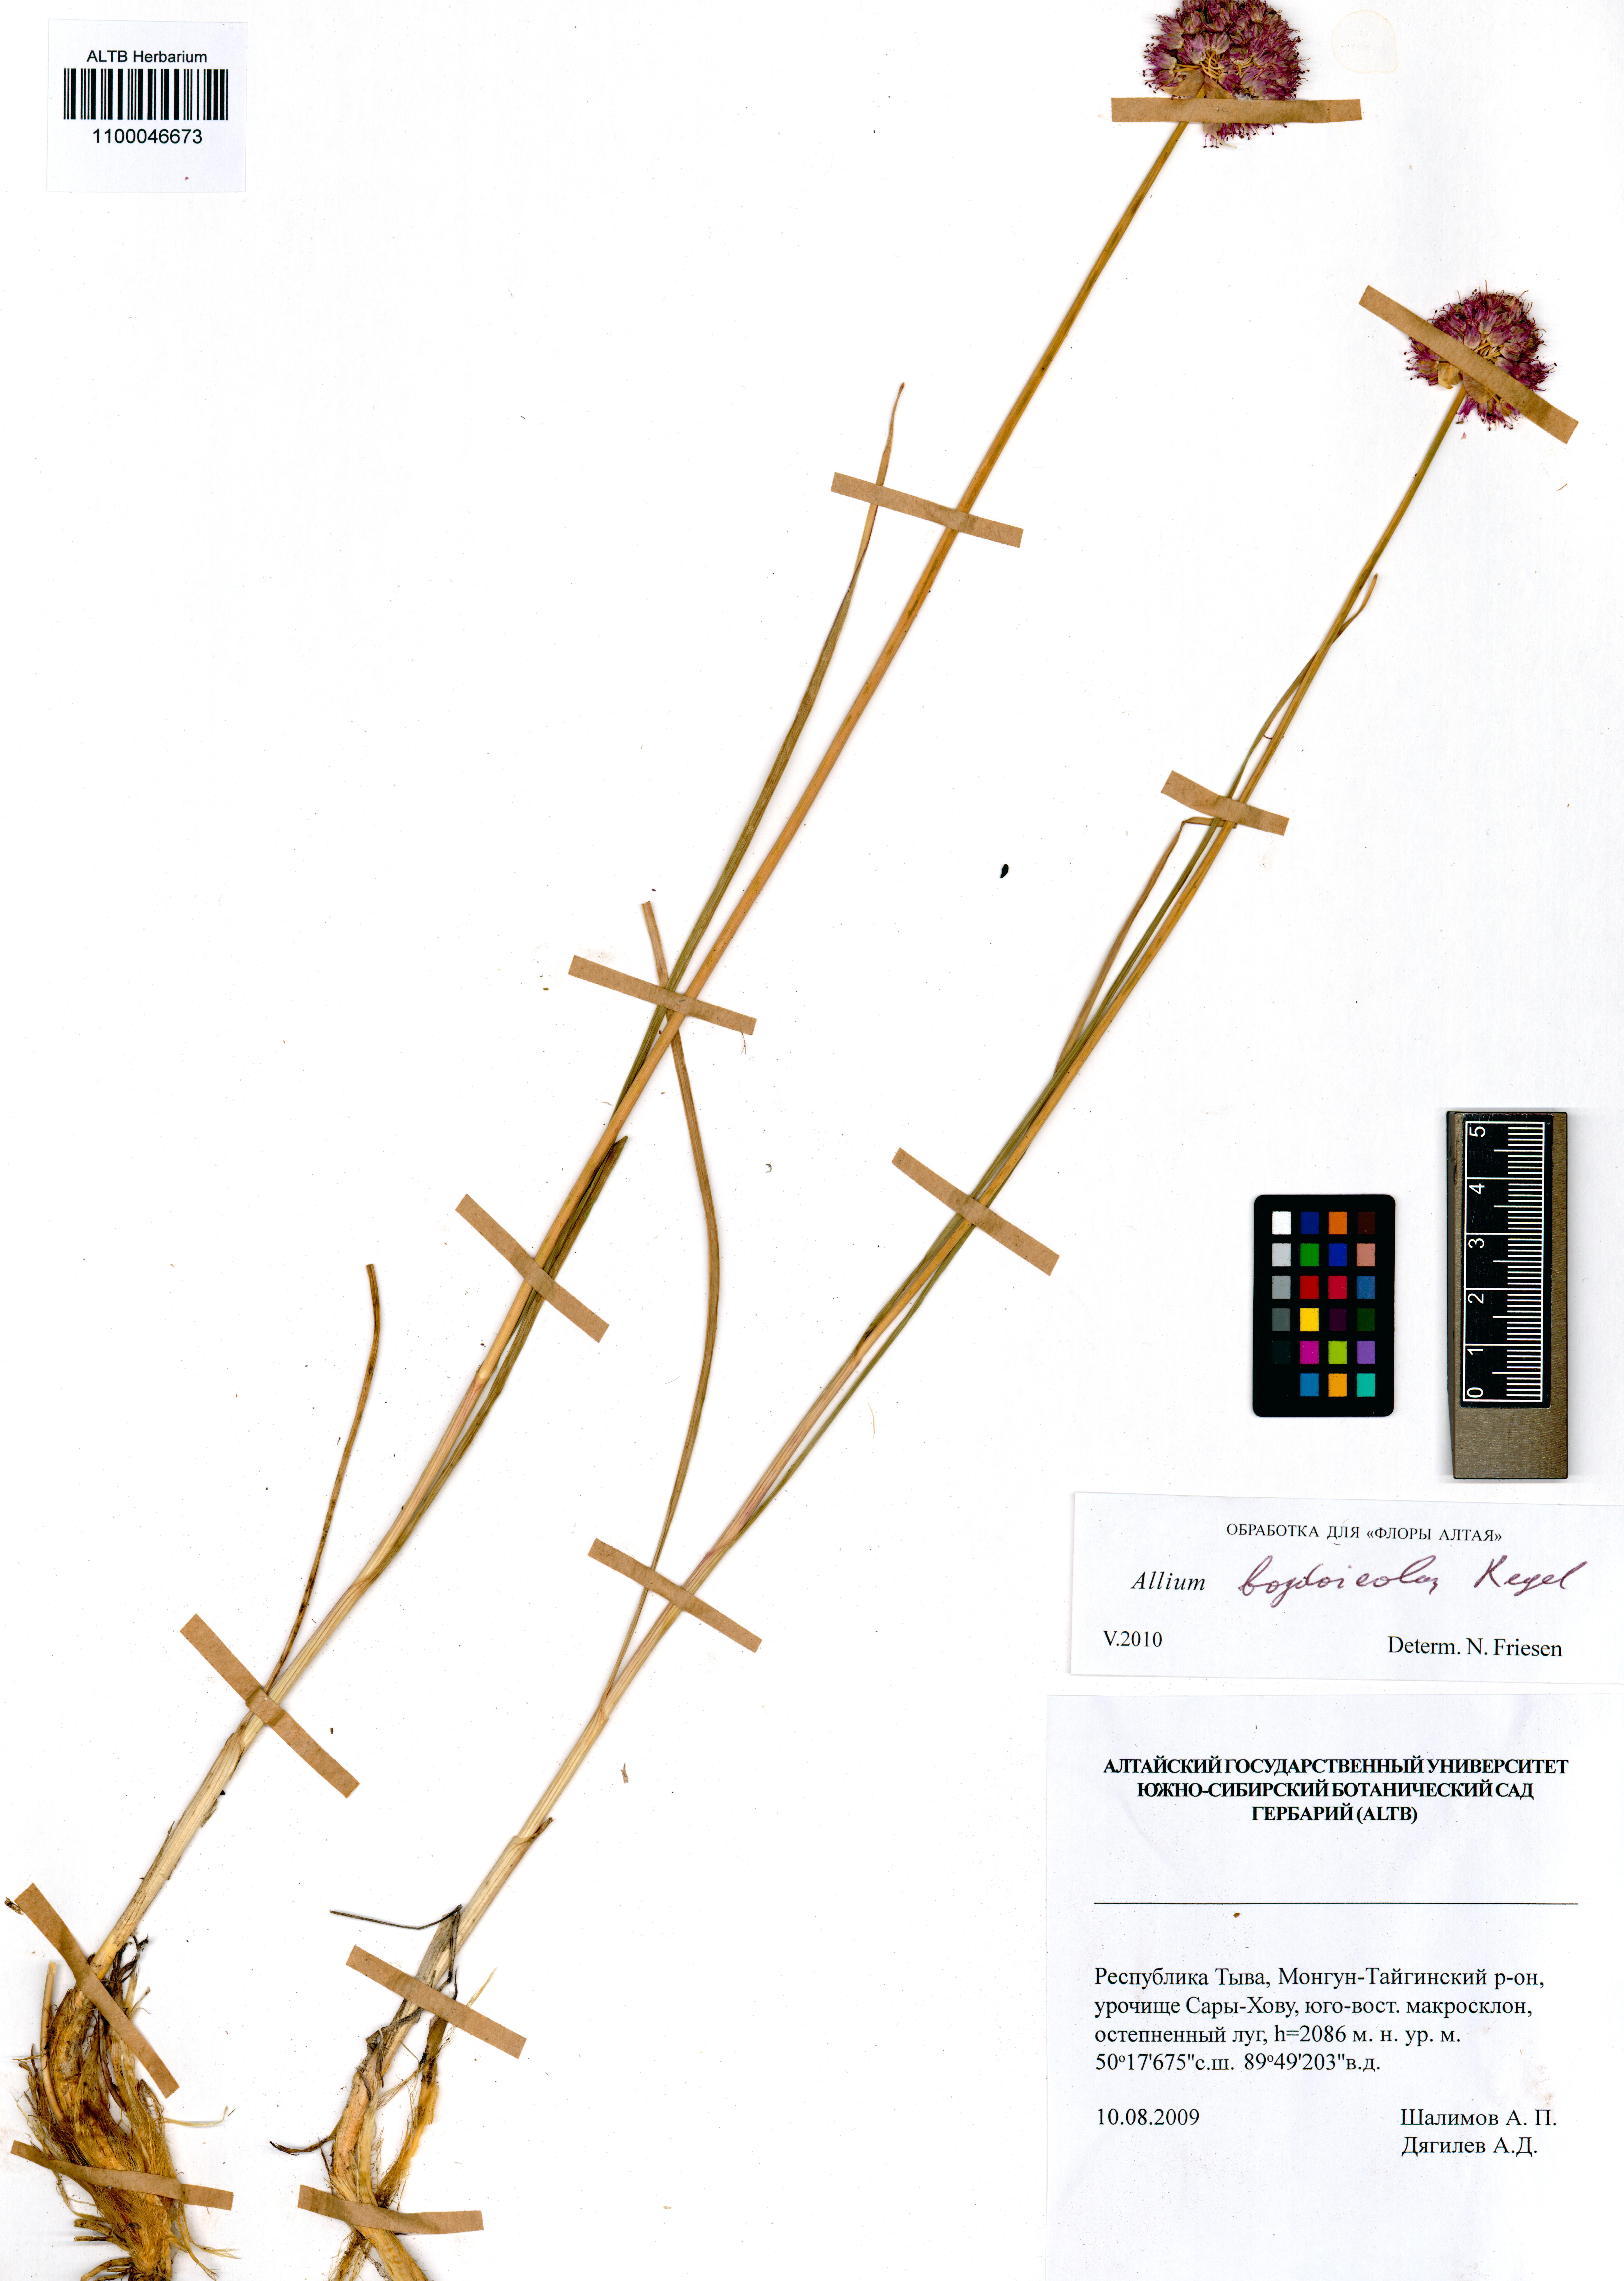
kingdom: Plantae
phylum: Tracheophyta
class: Liliopsida
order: Asparagales
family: Amaryllidaceae
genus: Allium
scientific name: Allium schrenkii
